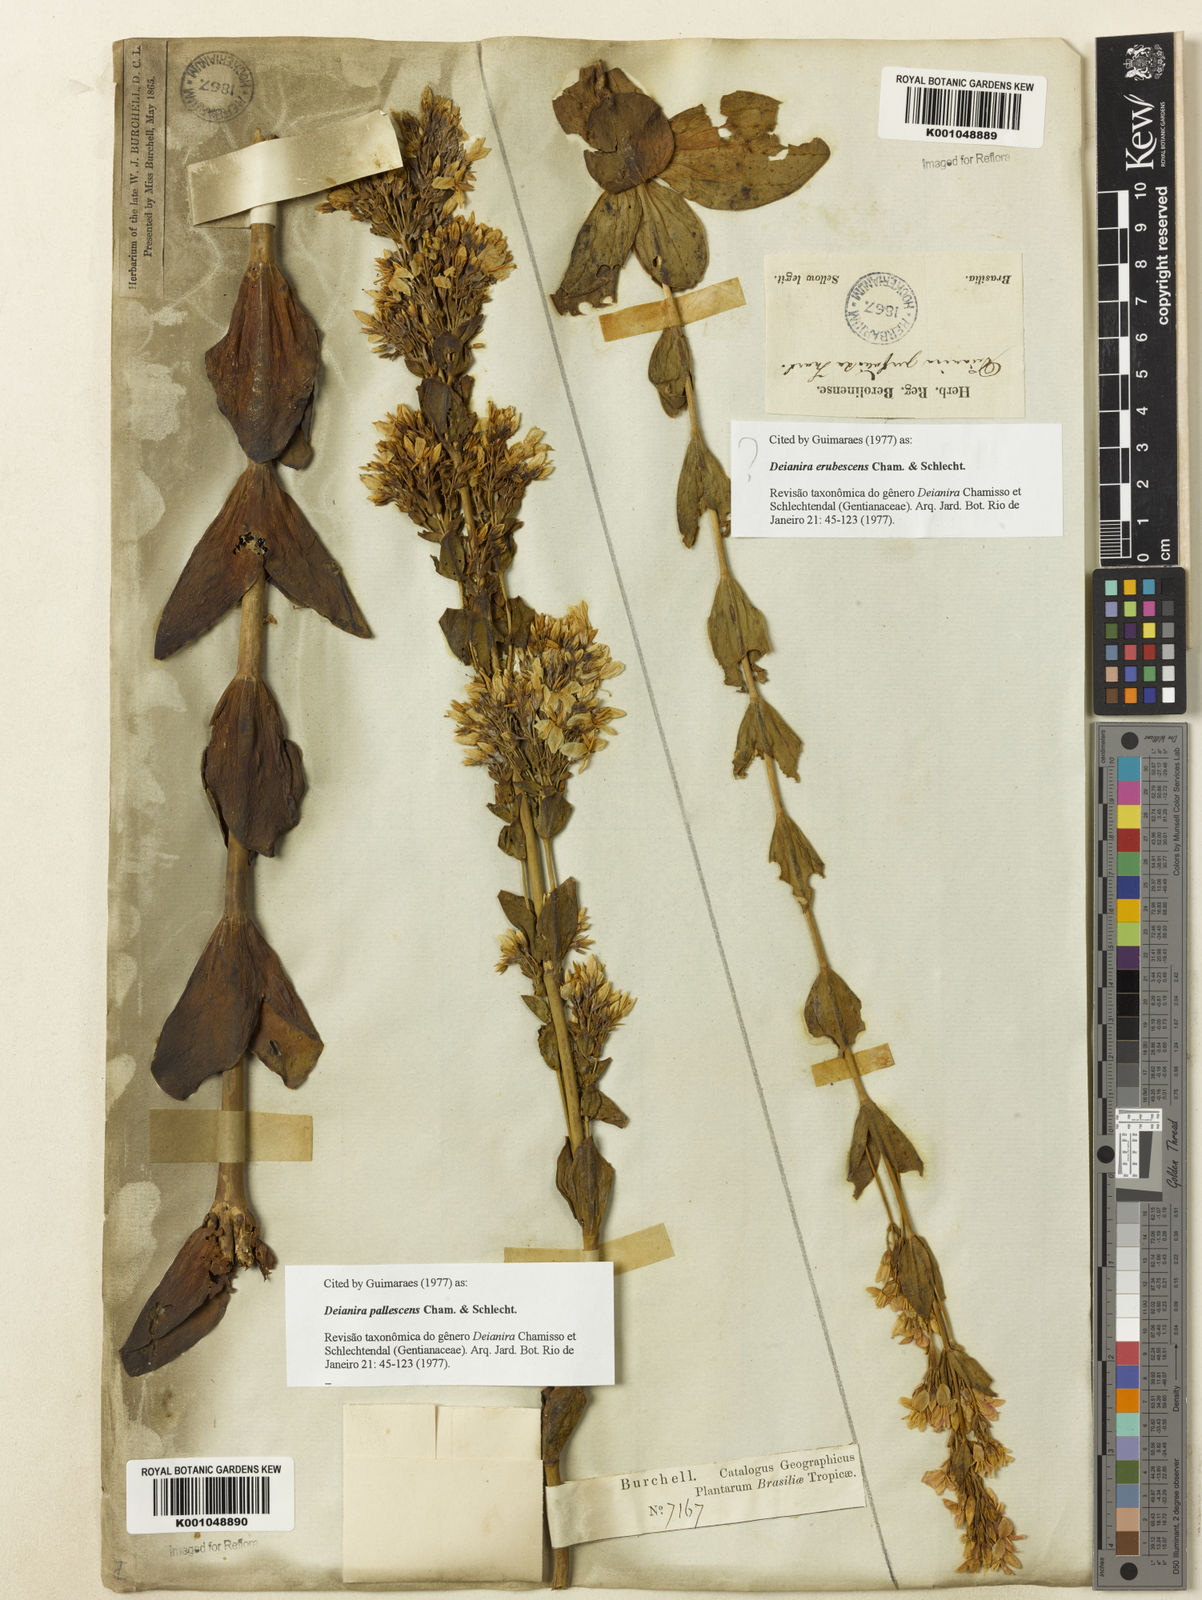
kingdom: Plantae
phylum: Tracheophyta
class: Magnoliopsida
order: Gentianales
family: Gentianaceae
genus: Deianira
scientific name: Deianira erubescens
